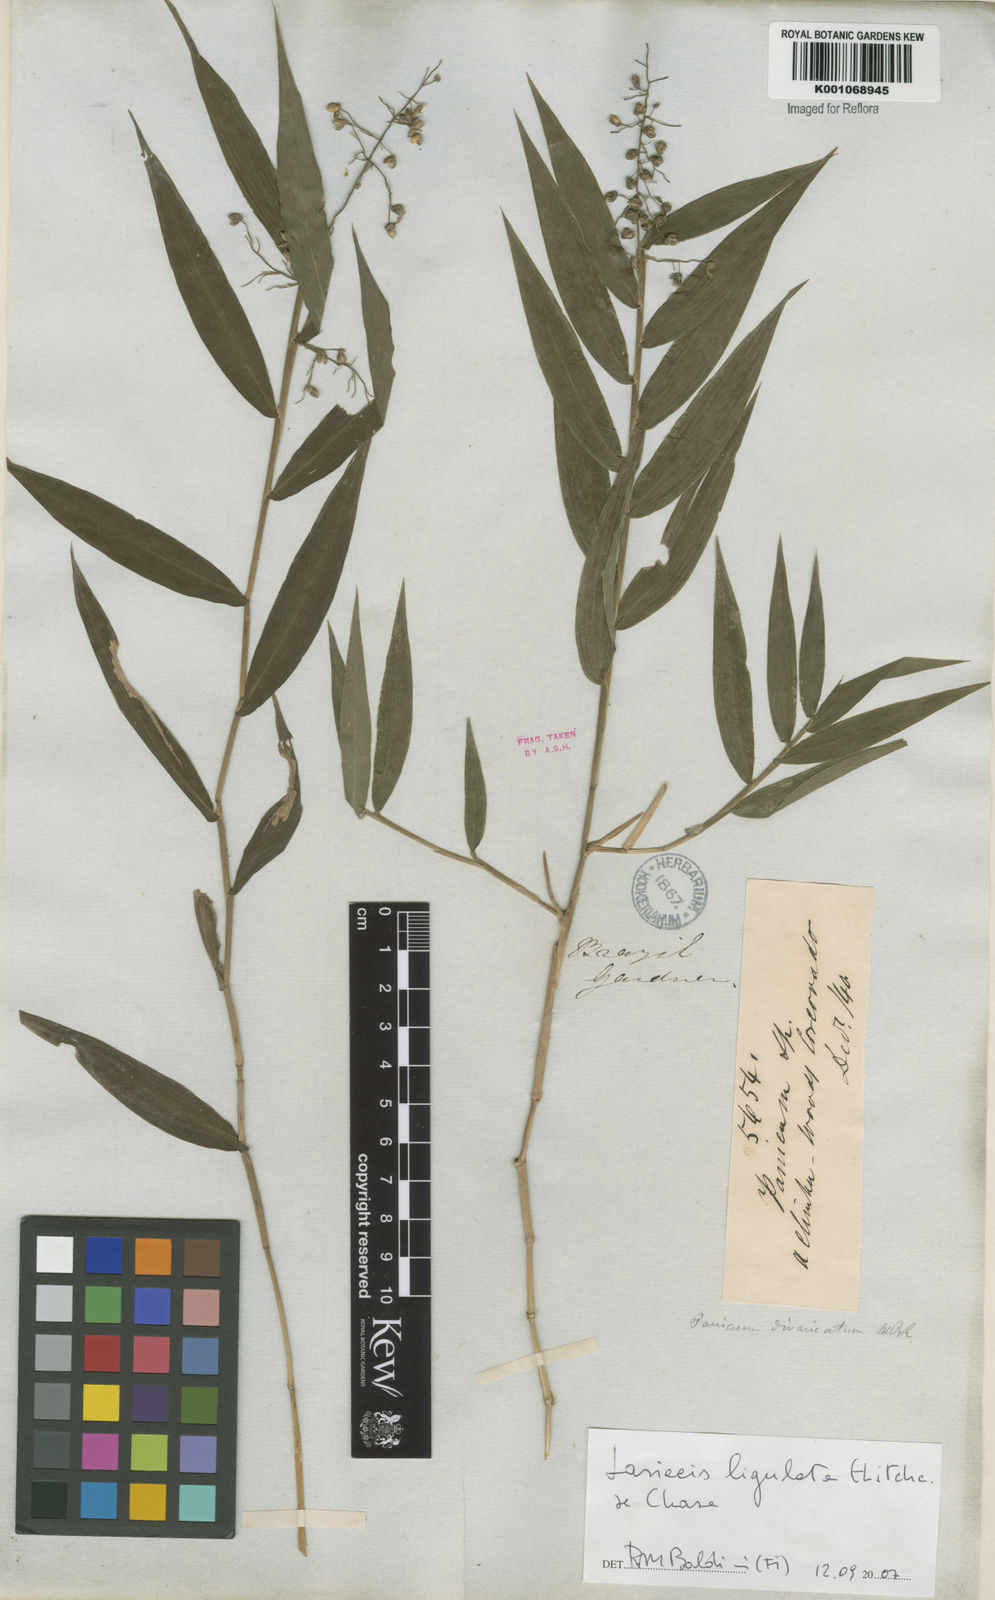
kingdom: Plantae
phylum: Tracheophyta
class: Liliopsida
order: Poales
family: Poaceae
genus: Lasiacis
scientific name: Lasiacis ligulata
